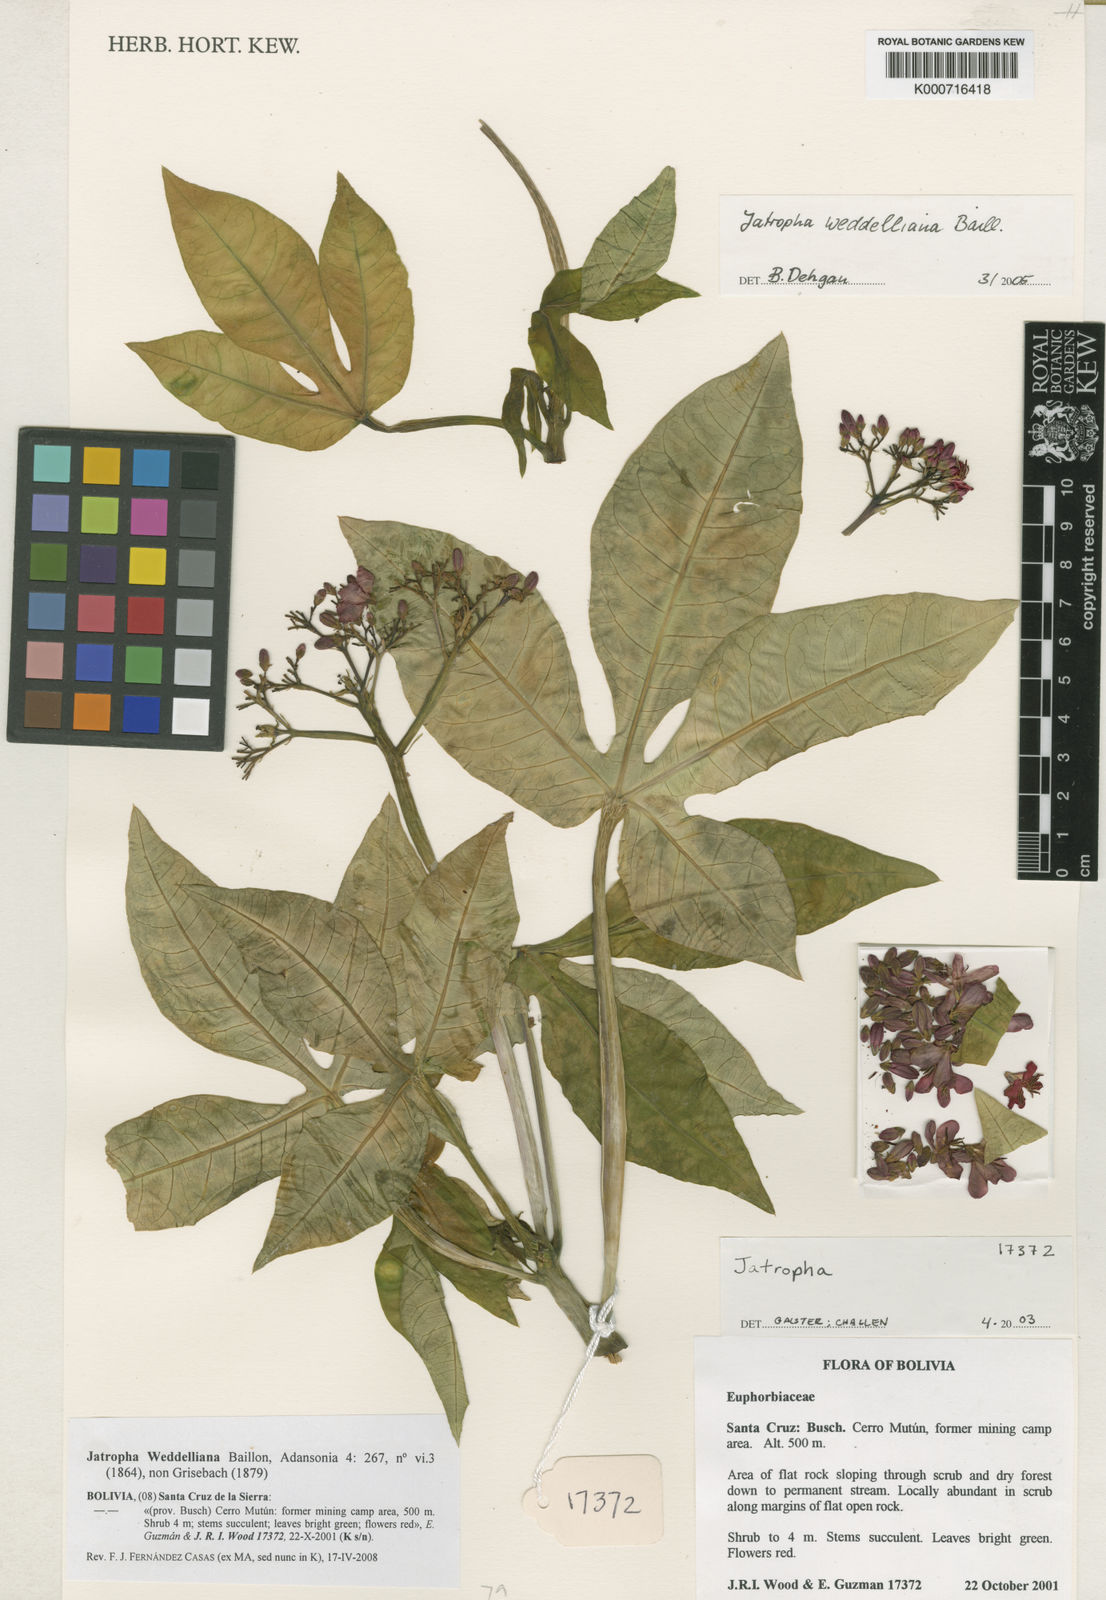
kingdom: Plantae
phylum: Tracheophyta
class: Magnoliopsida
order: Malpighiales
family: Euphorbiaceae
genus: Jatropha
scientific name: Jatropha weddeliana
